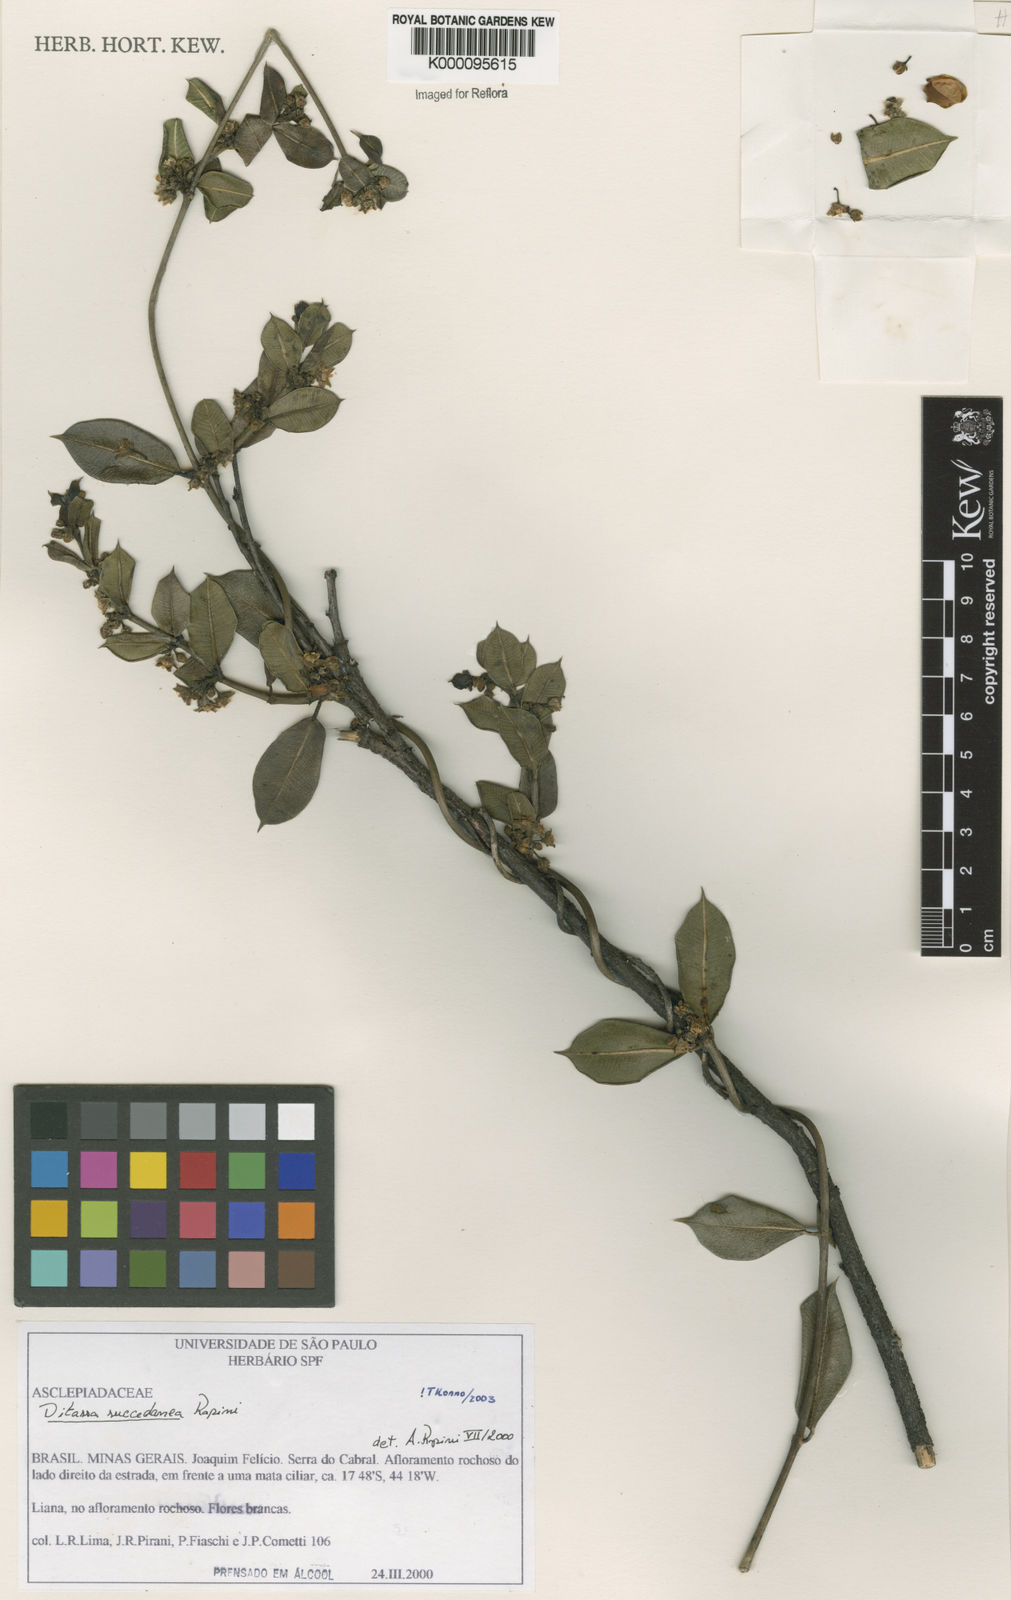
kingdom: Plantae
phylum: Tracheophyta
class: Magnoliopsida
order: Gentianales
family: Apocynaceae
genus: Ditassa
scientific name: Ditassa succedanea
